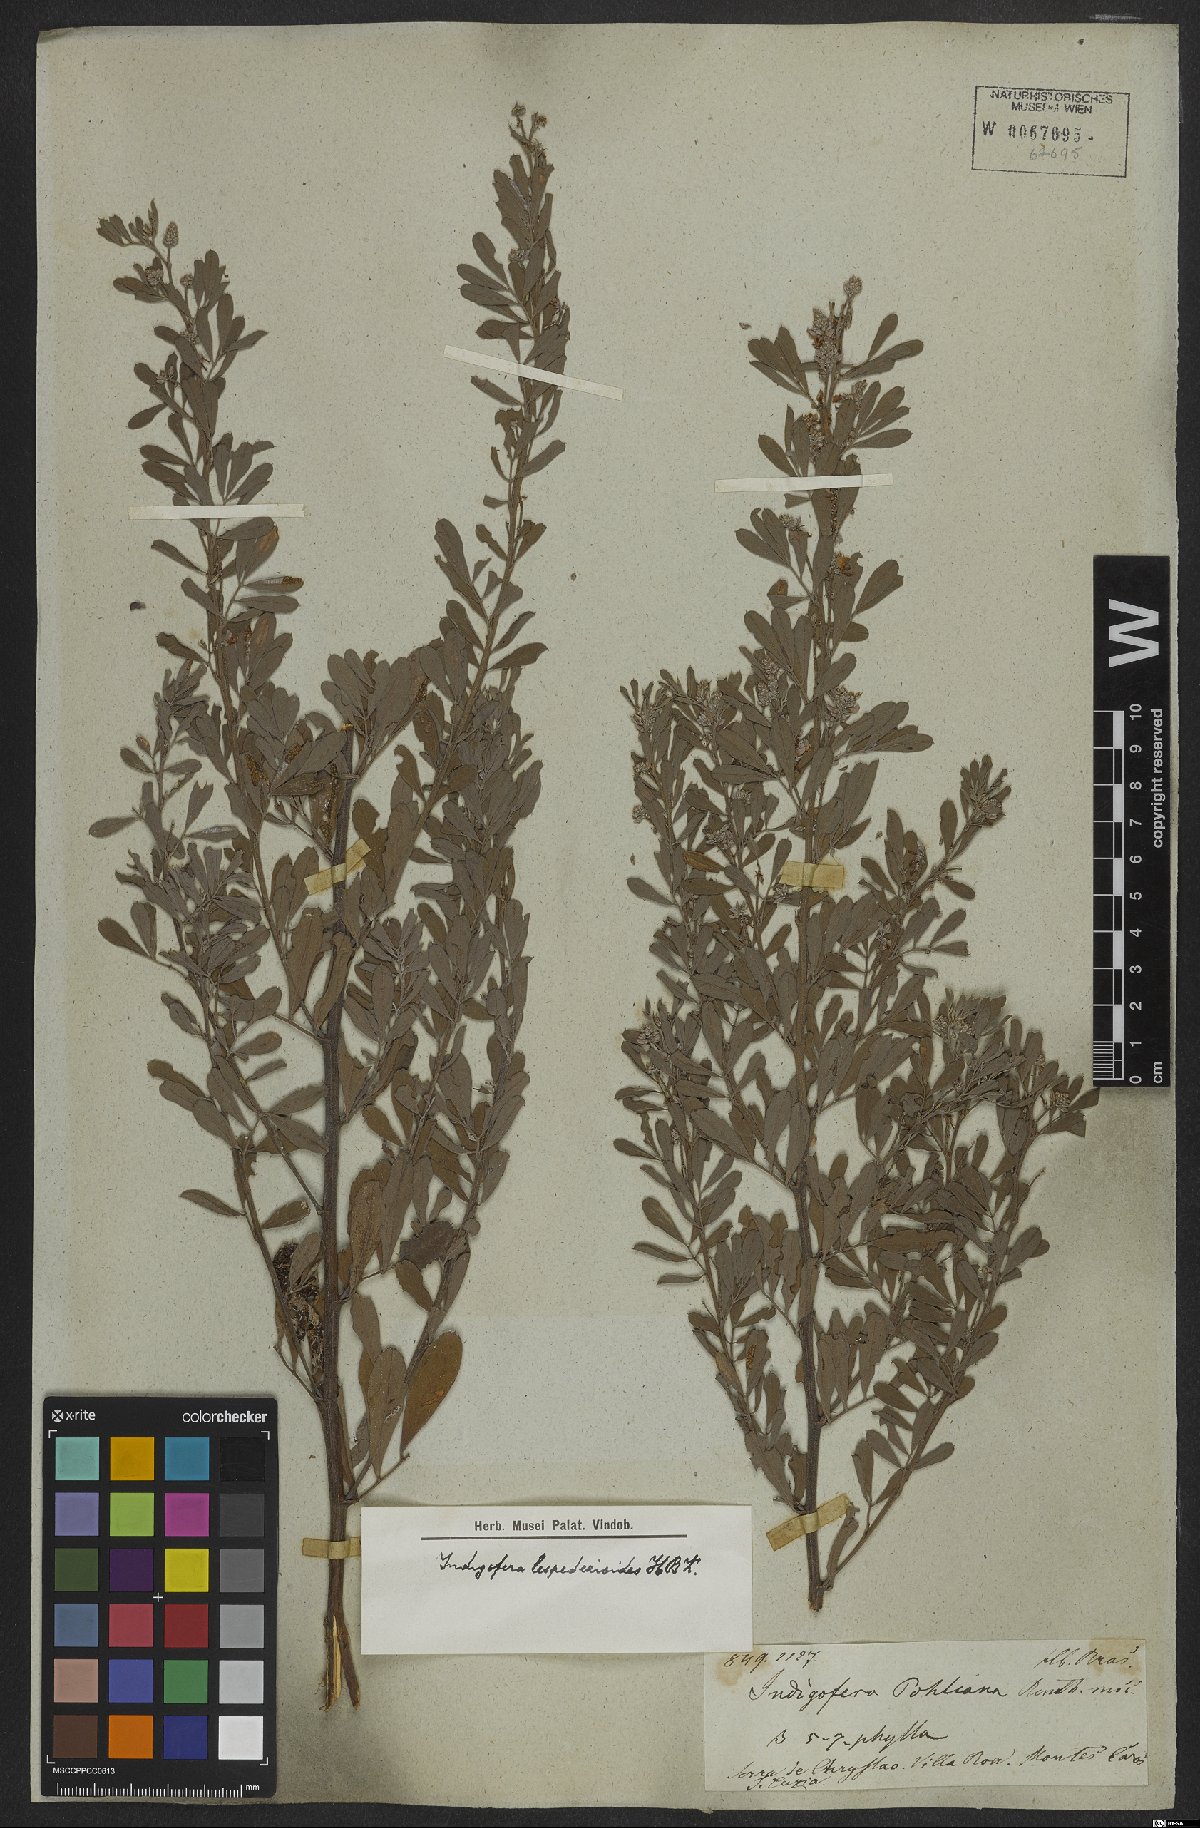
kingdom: Plantae
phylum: Tracheophyta
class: Magnoliopsida
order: Fabales
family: Fabaceae
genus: Indigofera
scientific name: Indigofera lespedezioides
